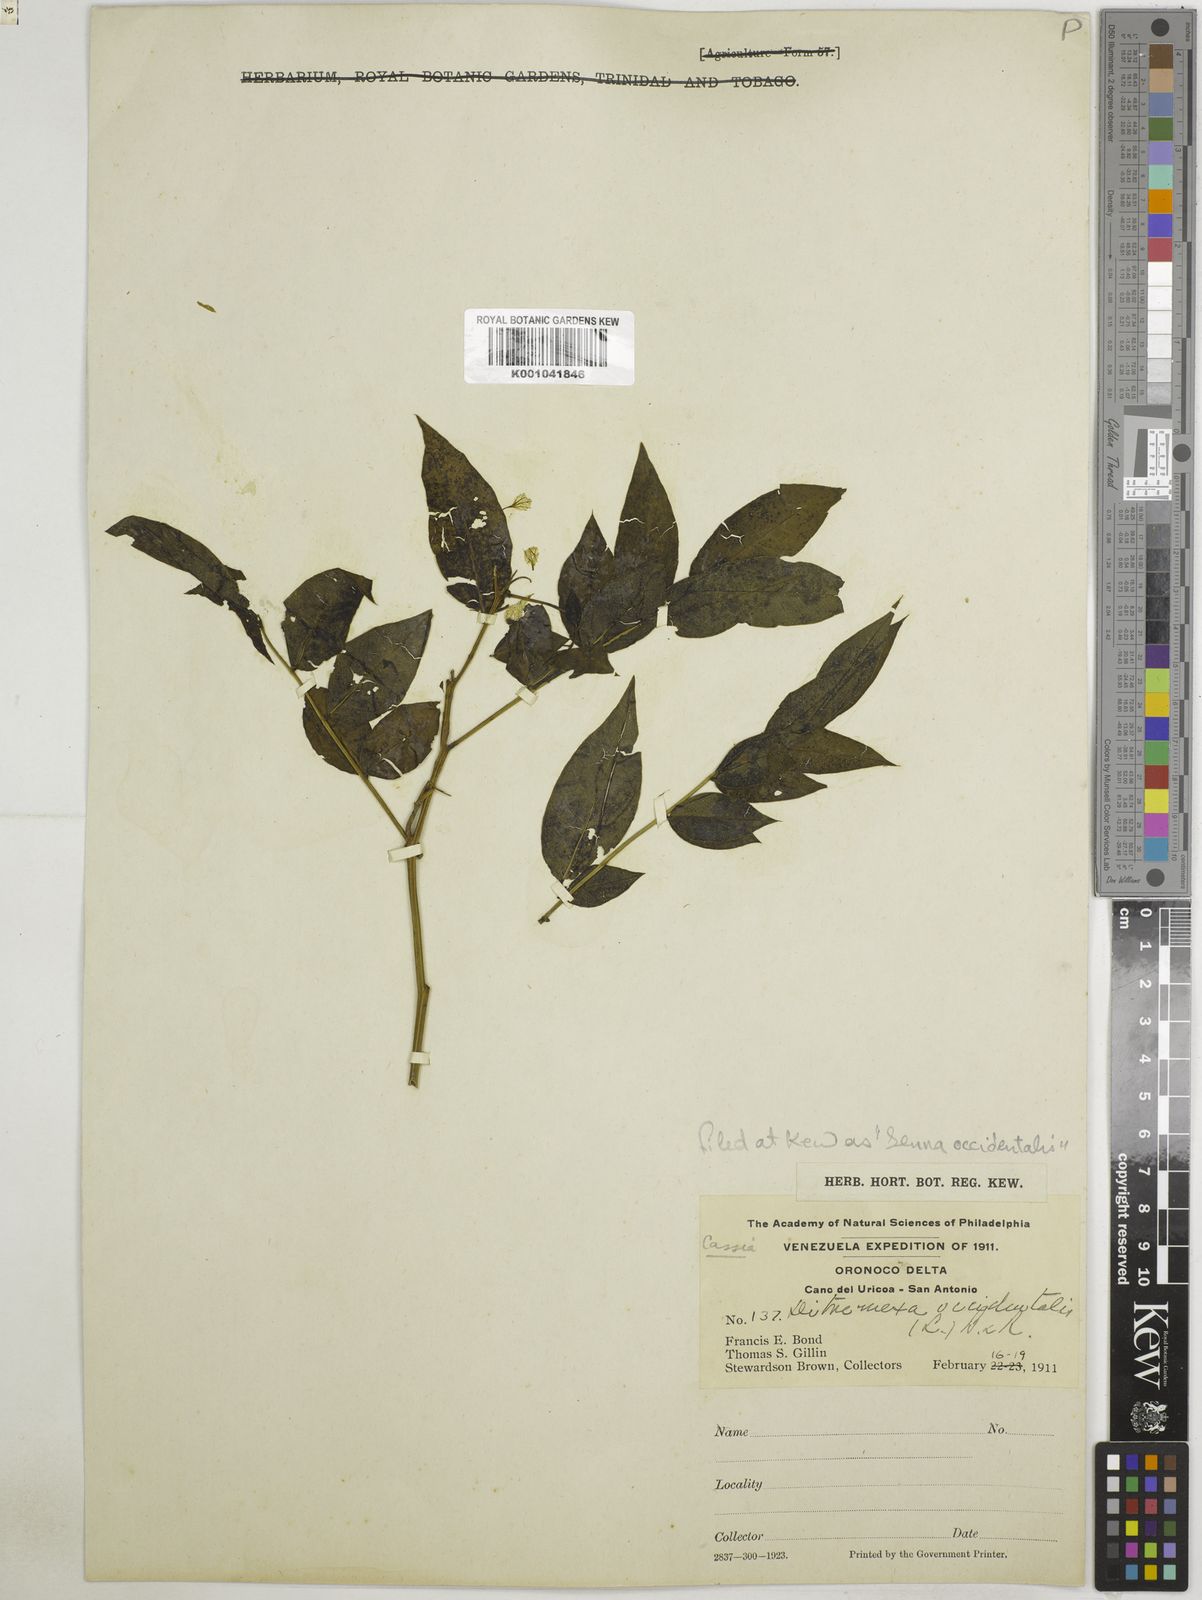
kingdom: Plantae
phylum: Tracheophyta
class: Magnoliopsida
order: Fabales
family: Fabaceae
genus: Senna
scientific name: Senna occidentalis
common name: Septicweed
